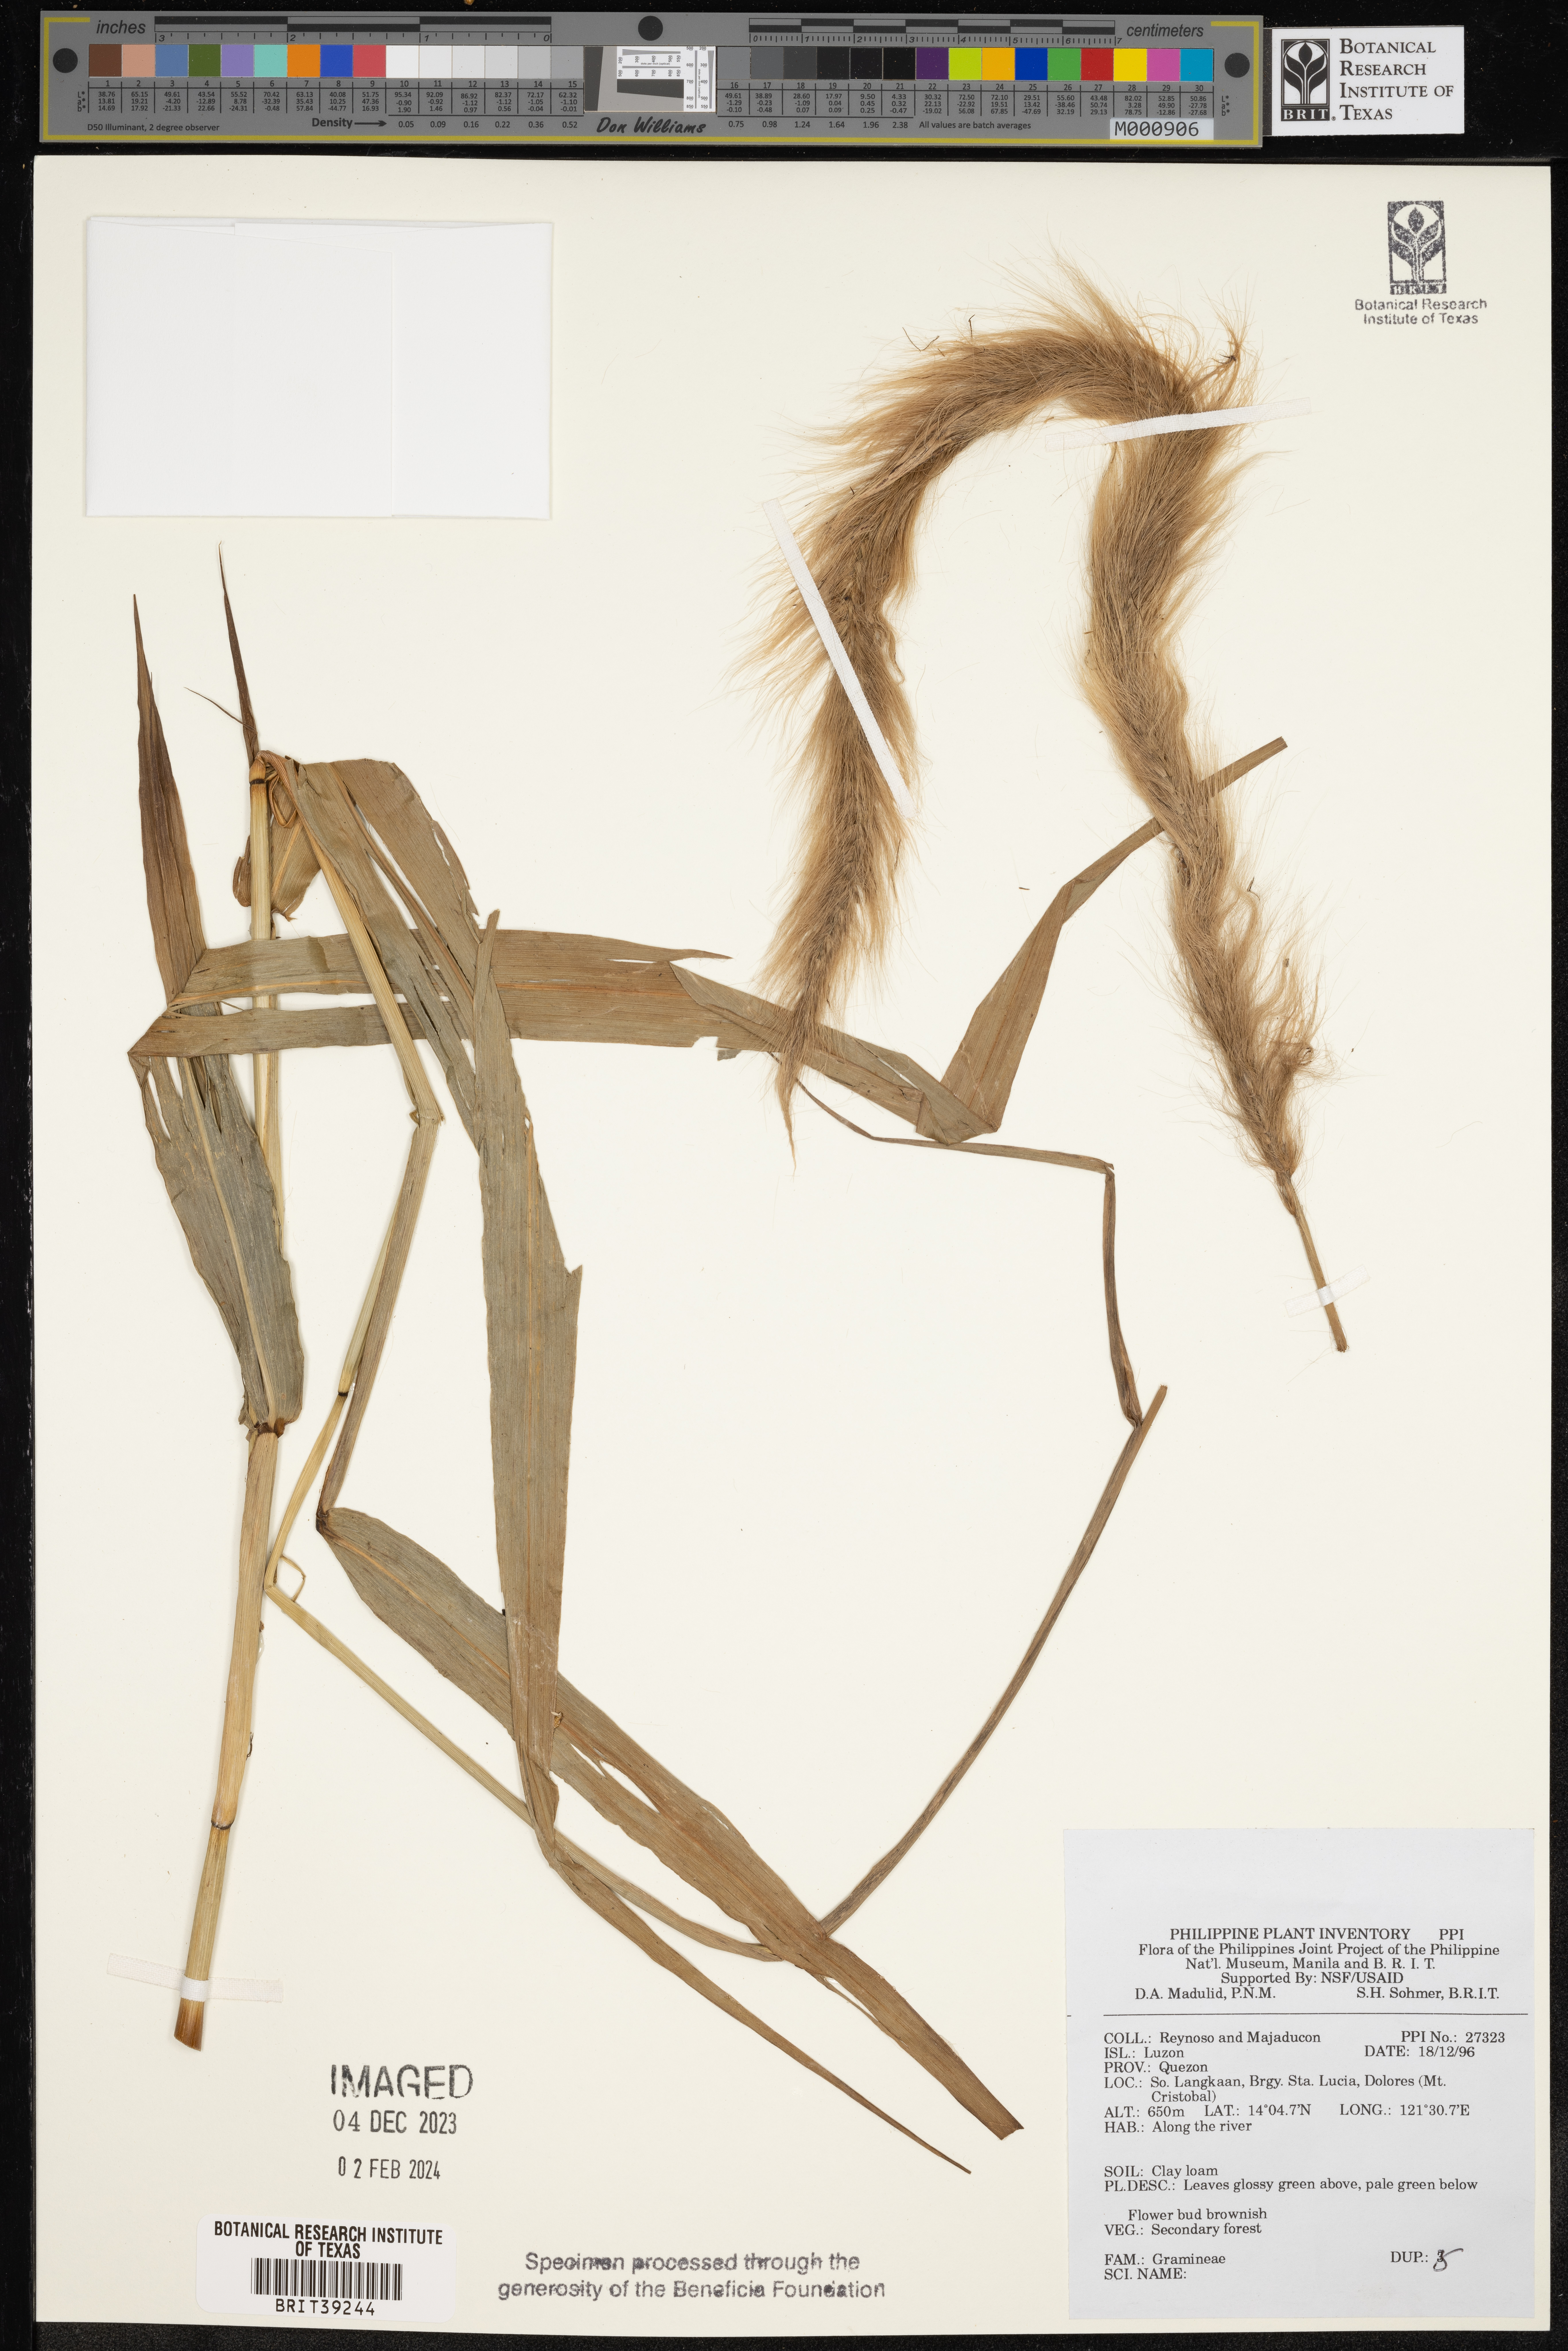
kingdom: Plantae
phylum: Tracheophyta
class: Liliopsida
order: Poales
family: Poaceae
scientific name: Poaceae
